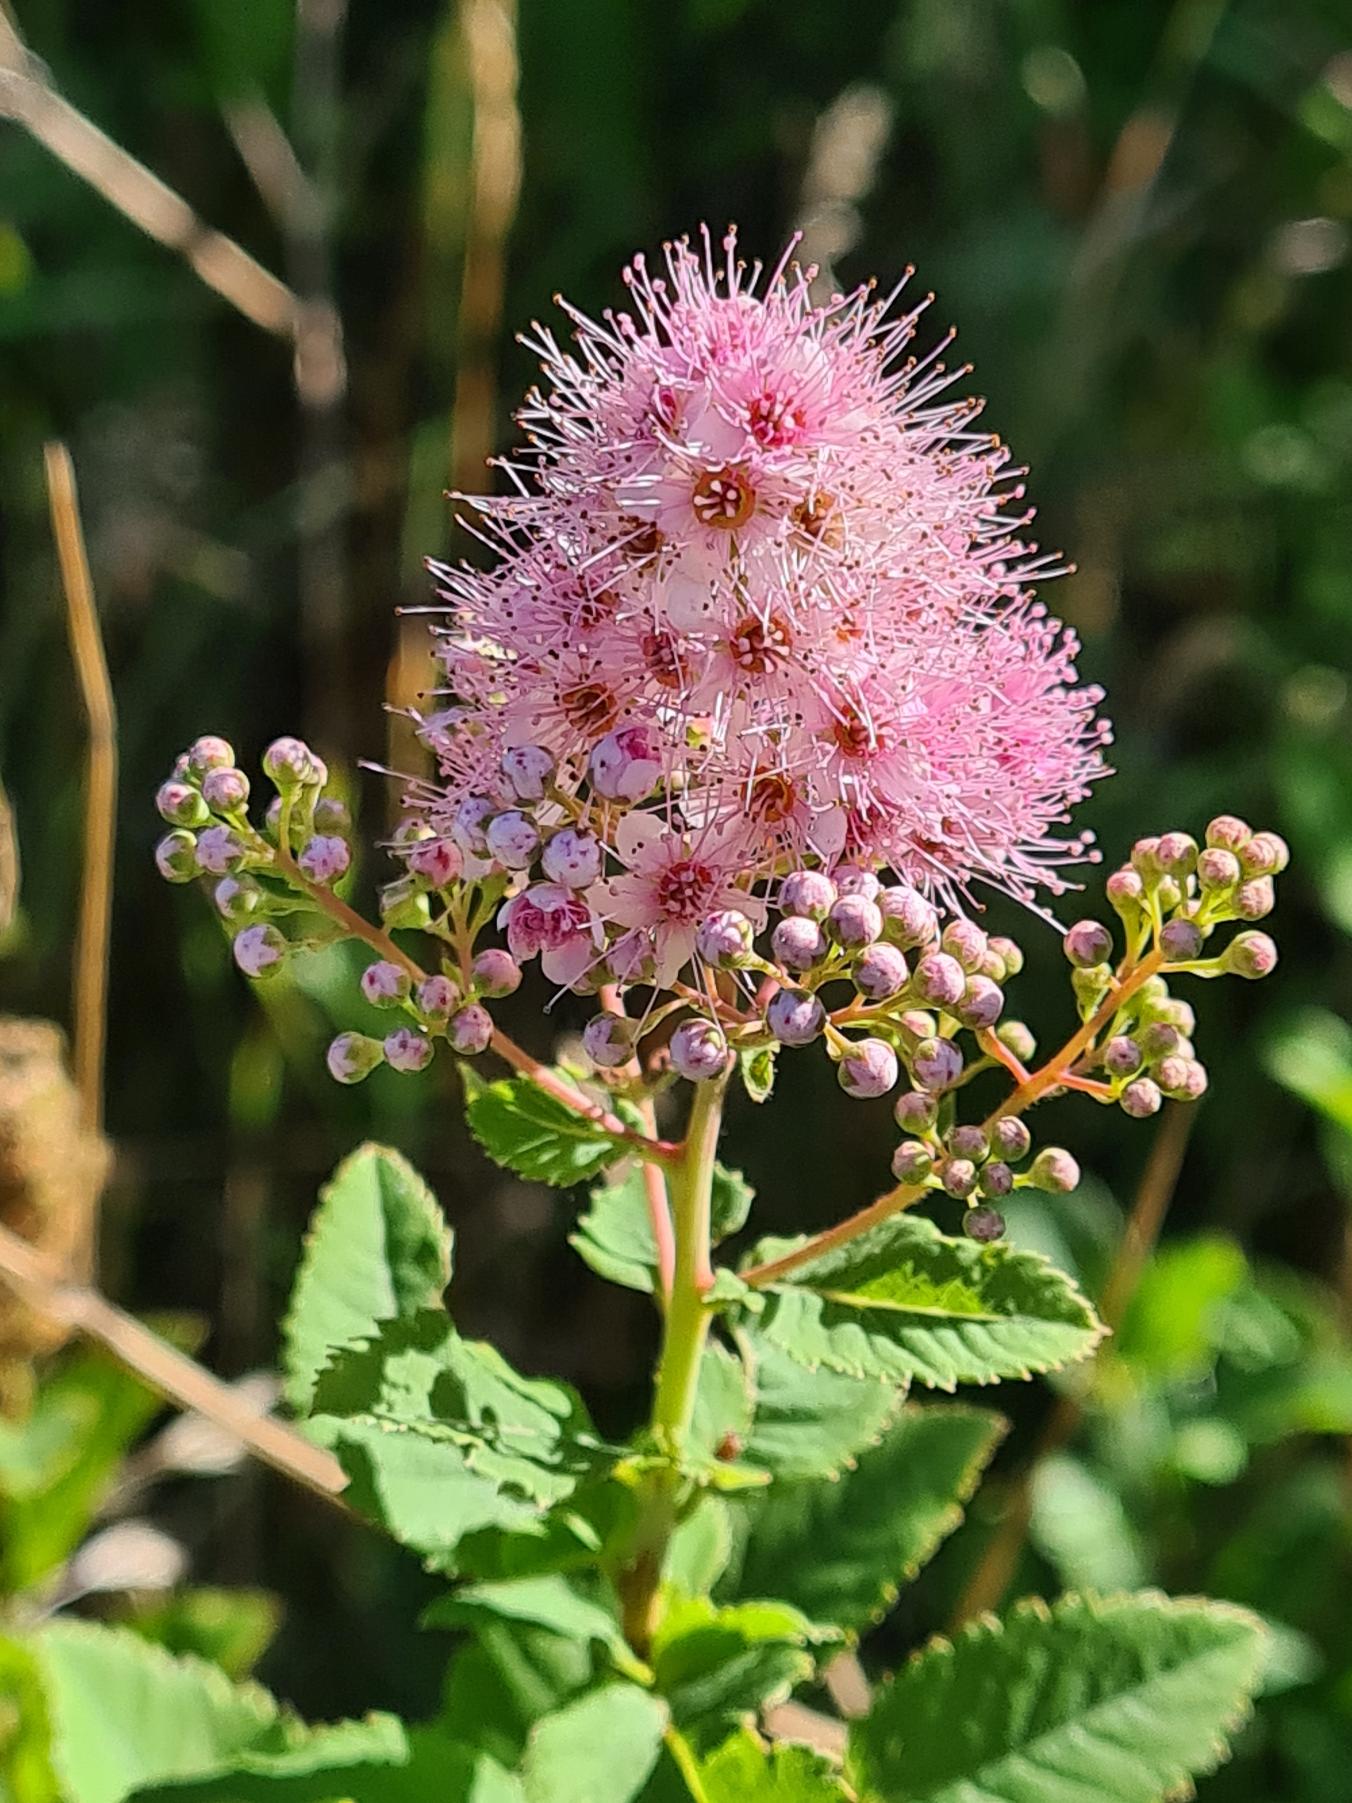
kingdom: Plantae
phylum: Tracheophyta
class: Magnoliopsida
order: Rosales
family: Rosaceae
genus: Spiraea
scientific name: Spiraea macrothyrsa
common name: Stortoppet spiræa
